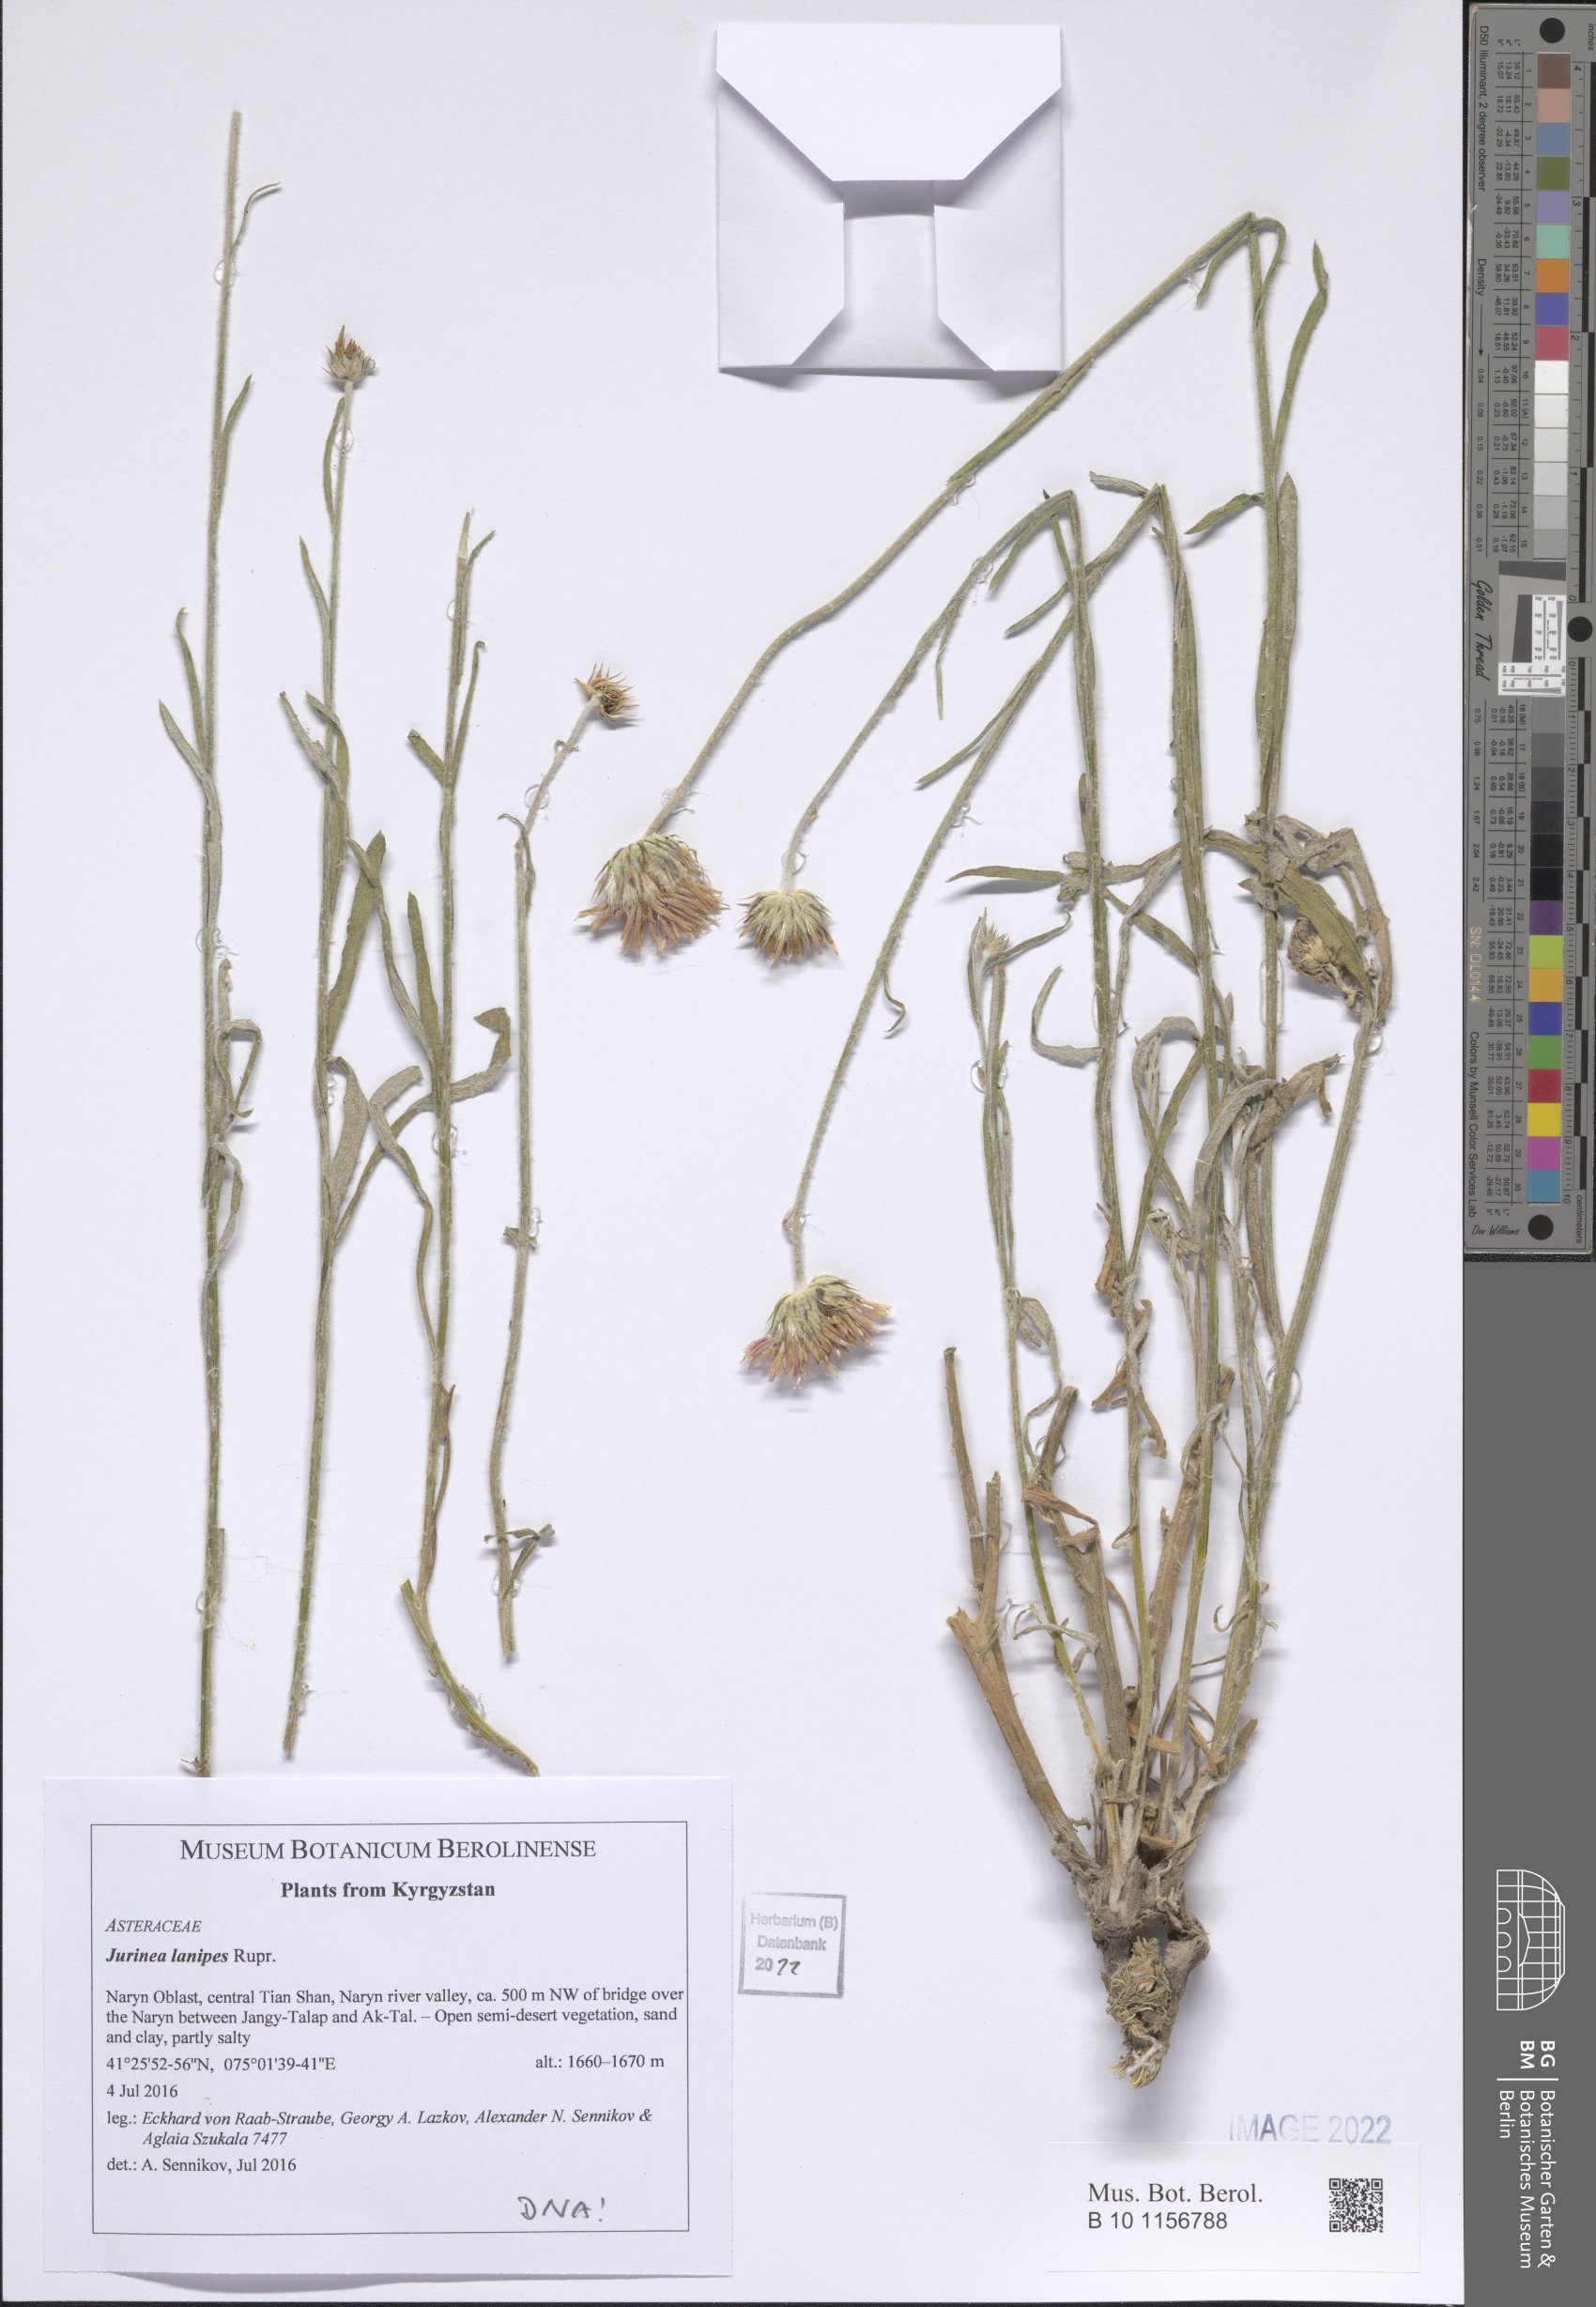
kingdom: Plantae
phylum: Tracheophyta
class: Magnoliopsida
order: Asterales
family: Asteraceae
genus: Jurinea
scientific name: Jurinea lanipes
